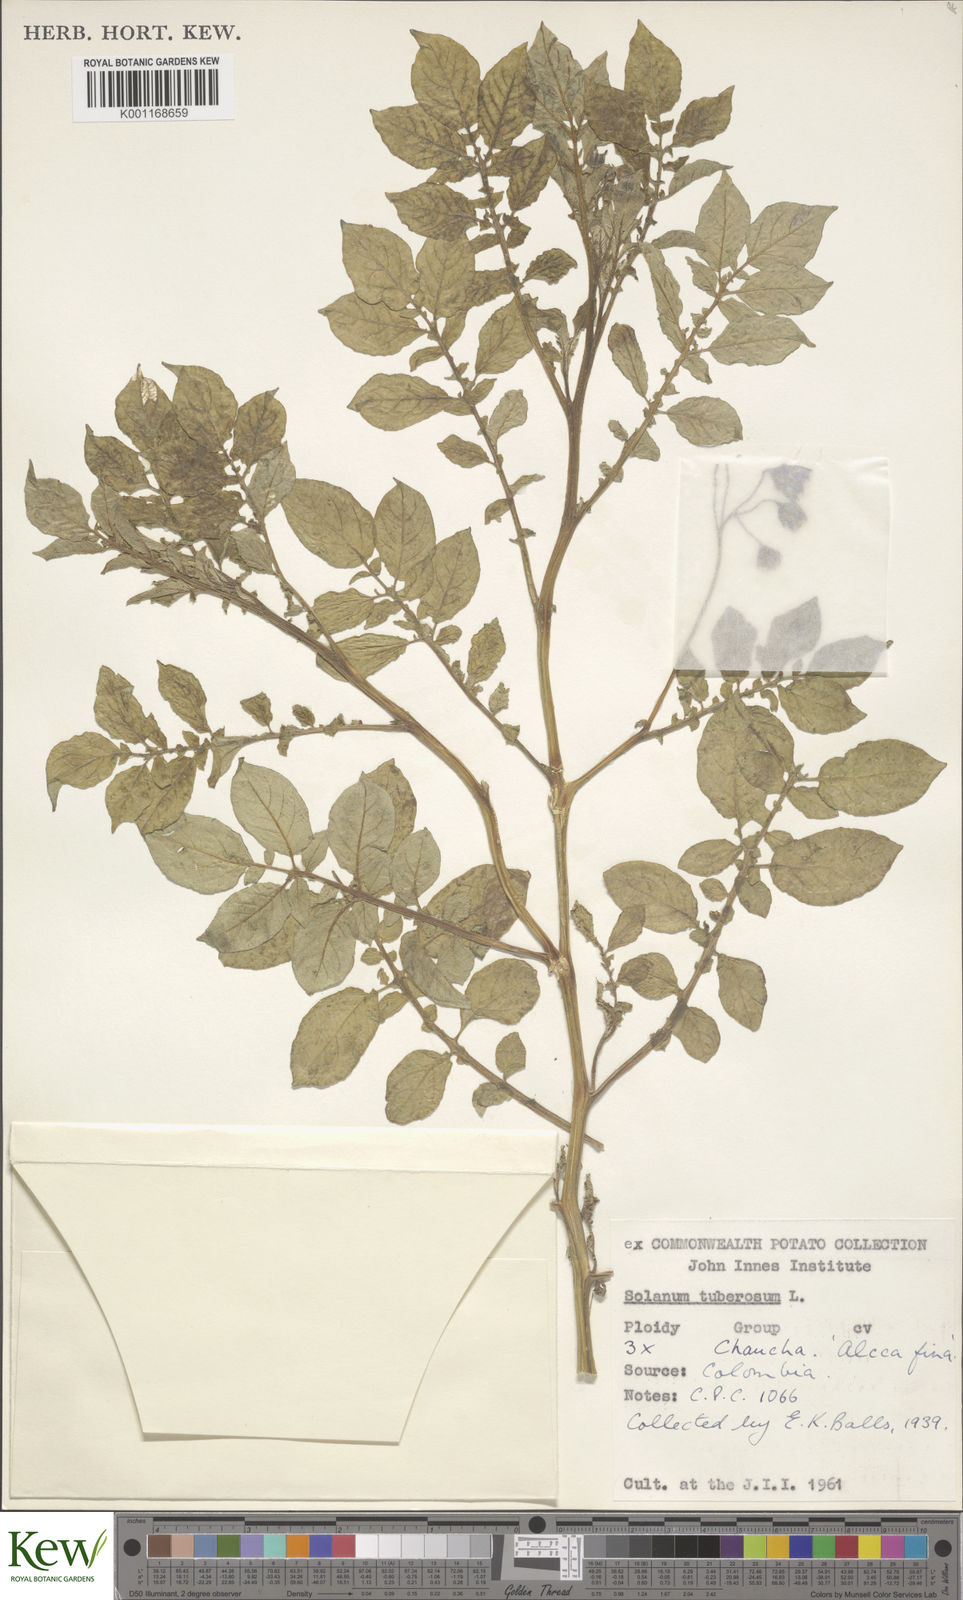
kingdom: Plantae
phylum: Tracheophyta
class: Magnoliopsida
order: Solanales
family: Solanaceae
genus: Solanum
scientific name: Solanum chaucha
